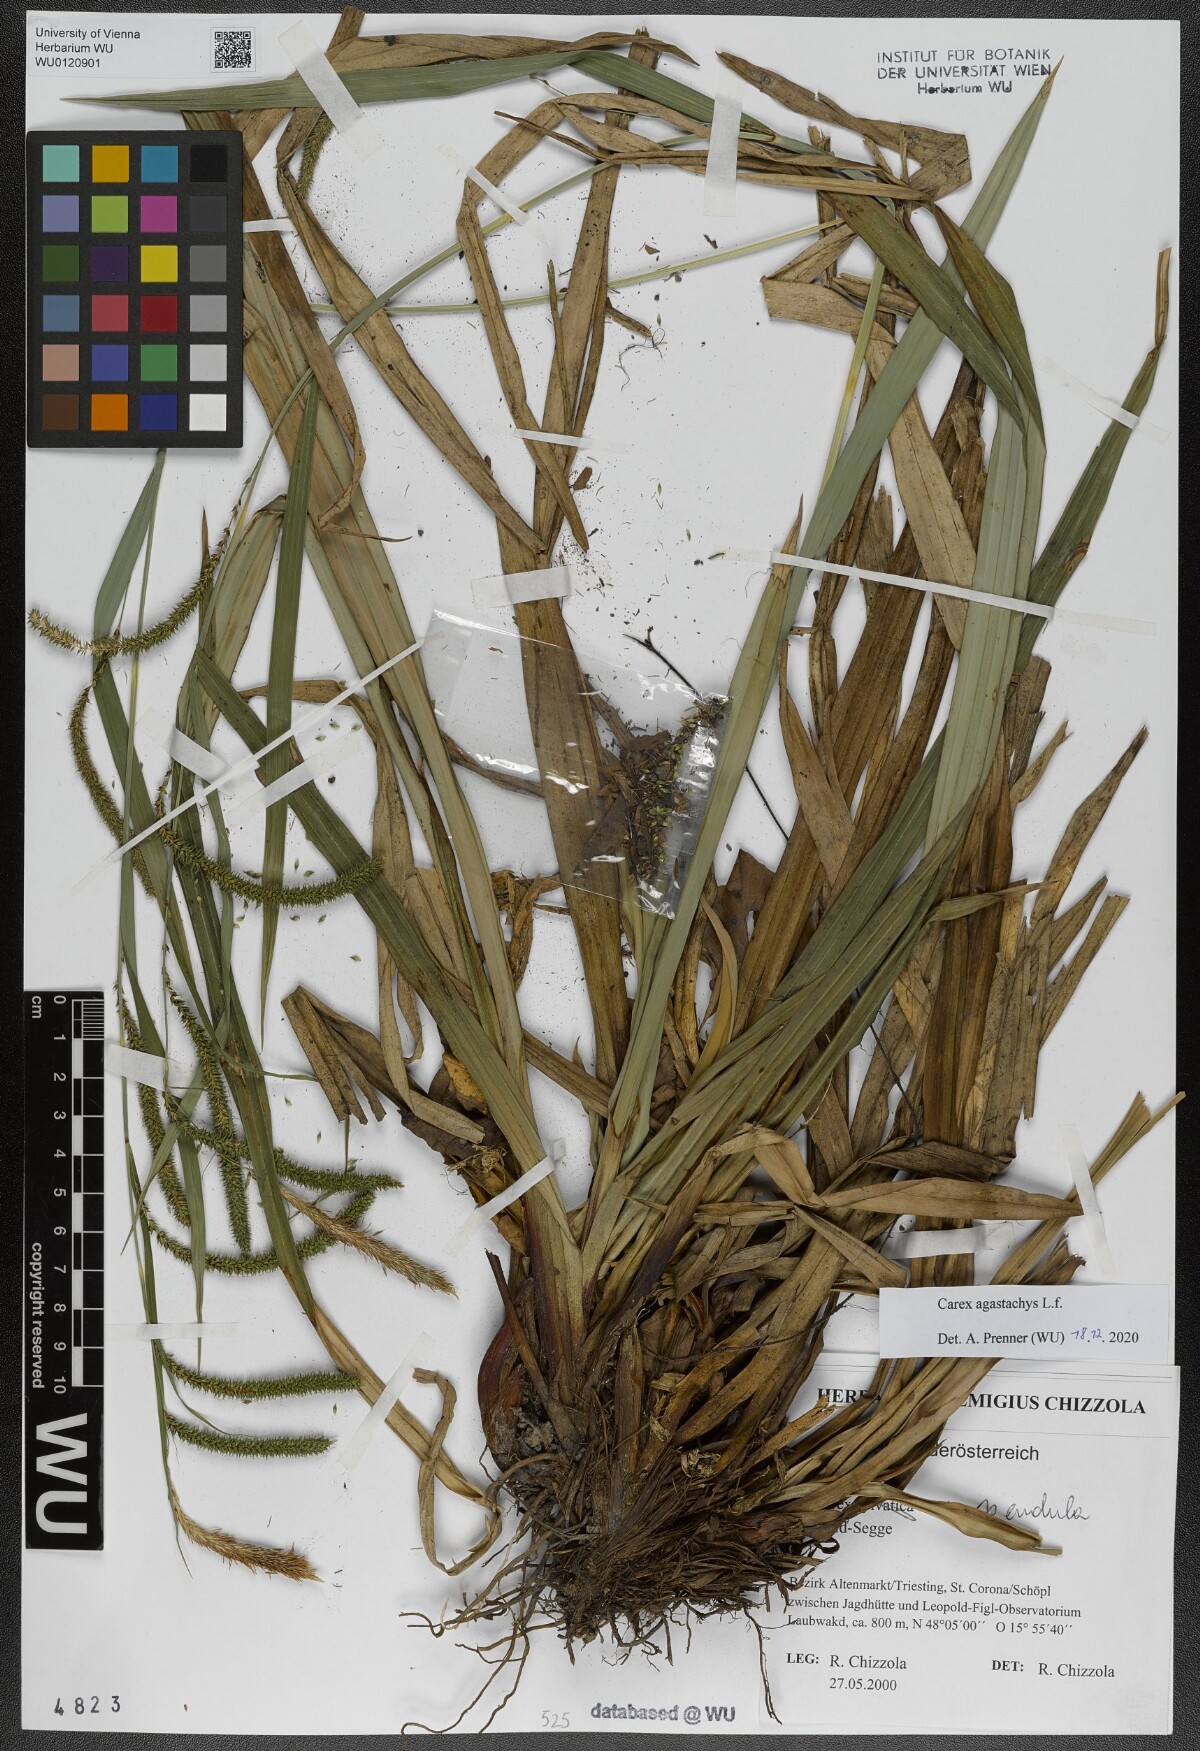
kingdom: Plantae
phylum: Tracheophyta
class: Liliopsida
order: Poales
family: Cyperaceae
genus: Carex
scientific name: Carex agastachys
